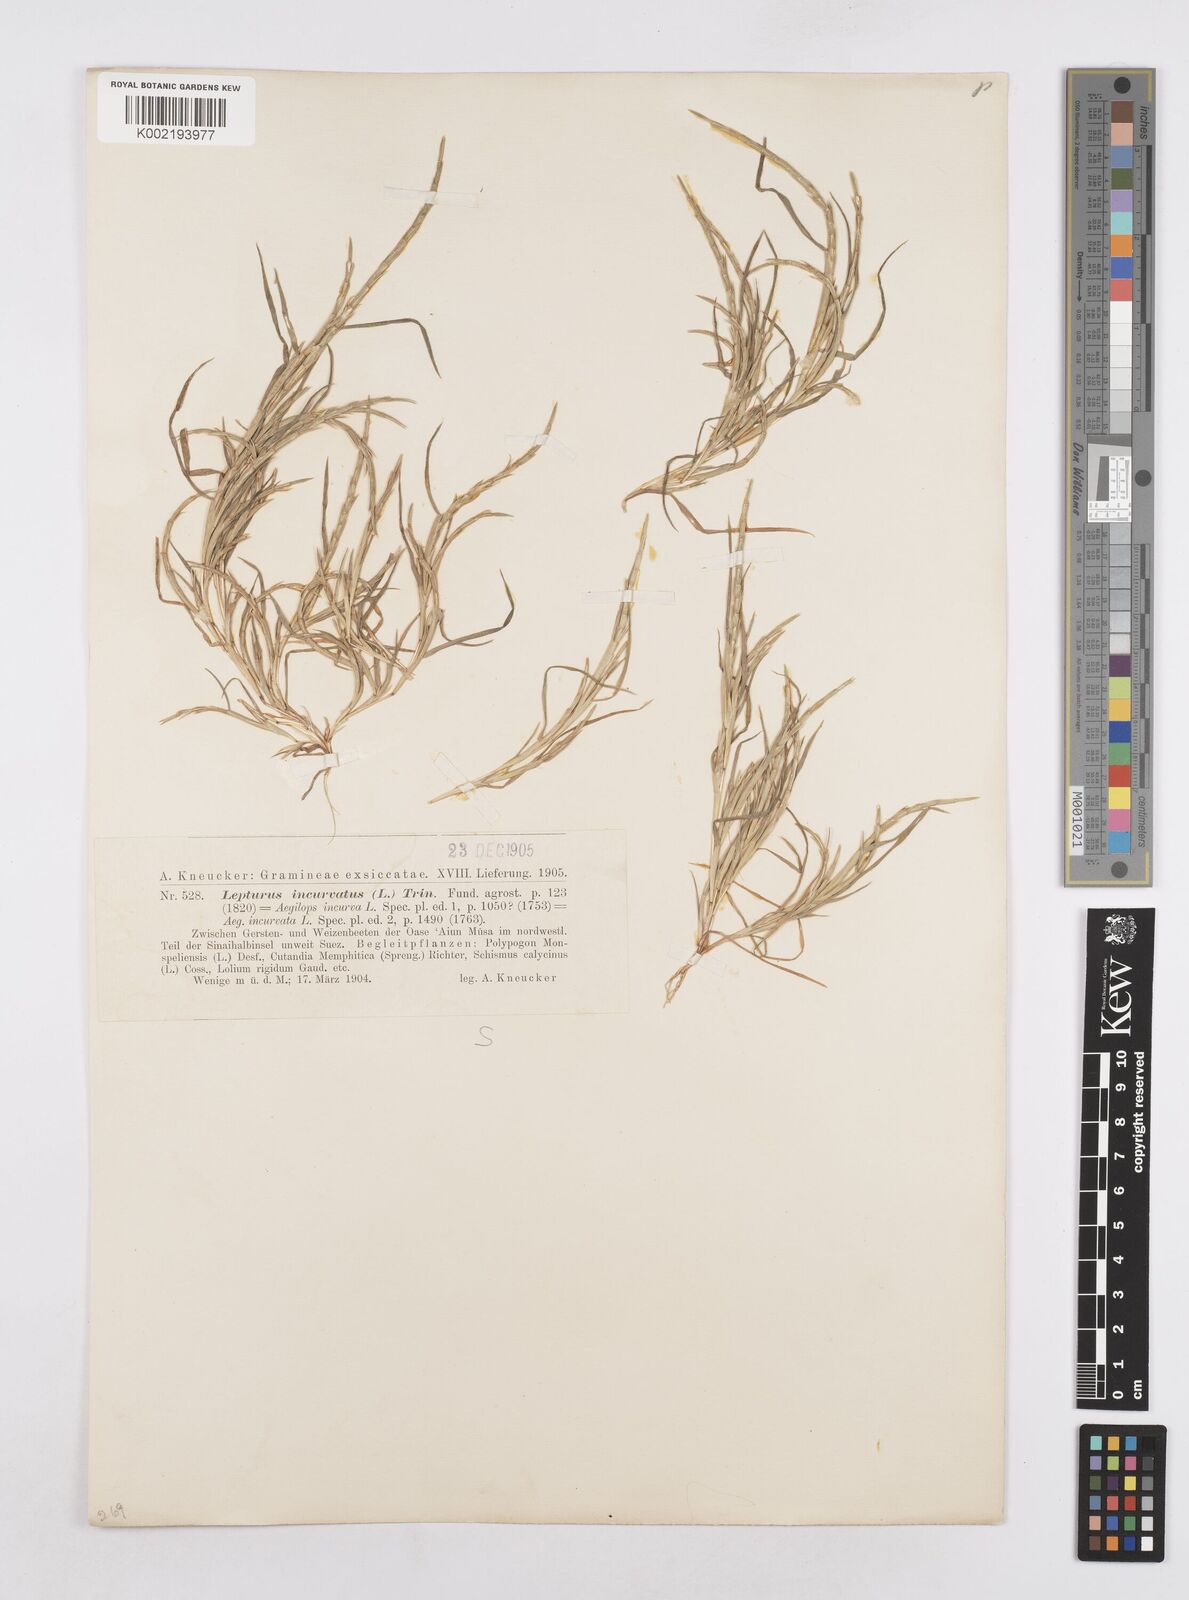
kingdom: Plantae
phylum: Tracheophyta
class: Liliopsida
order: Poales
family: Poaceae
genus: Parapholis
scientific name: Parapholis incurva
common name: Curved sicklegrass
